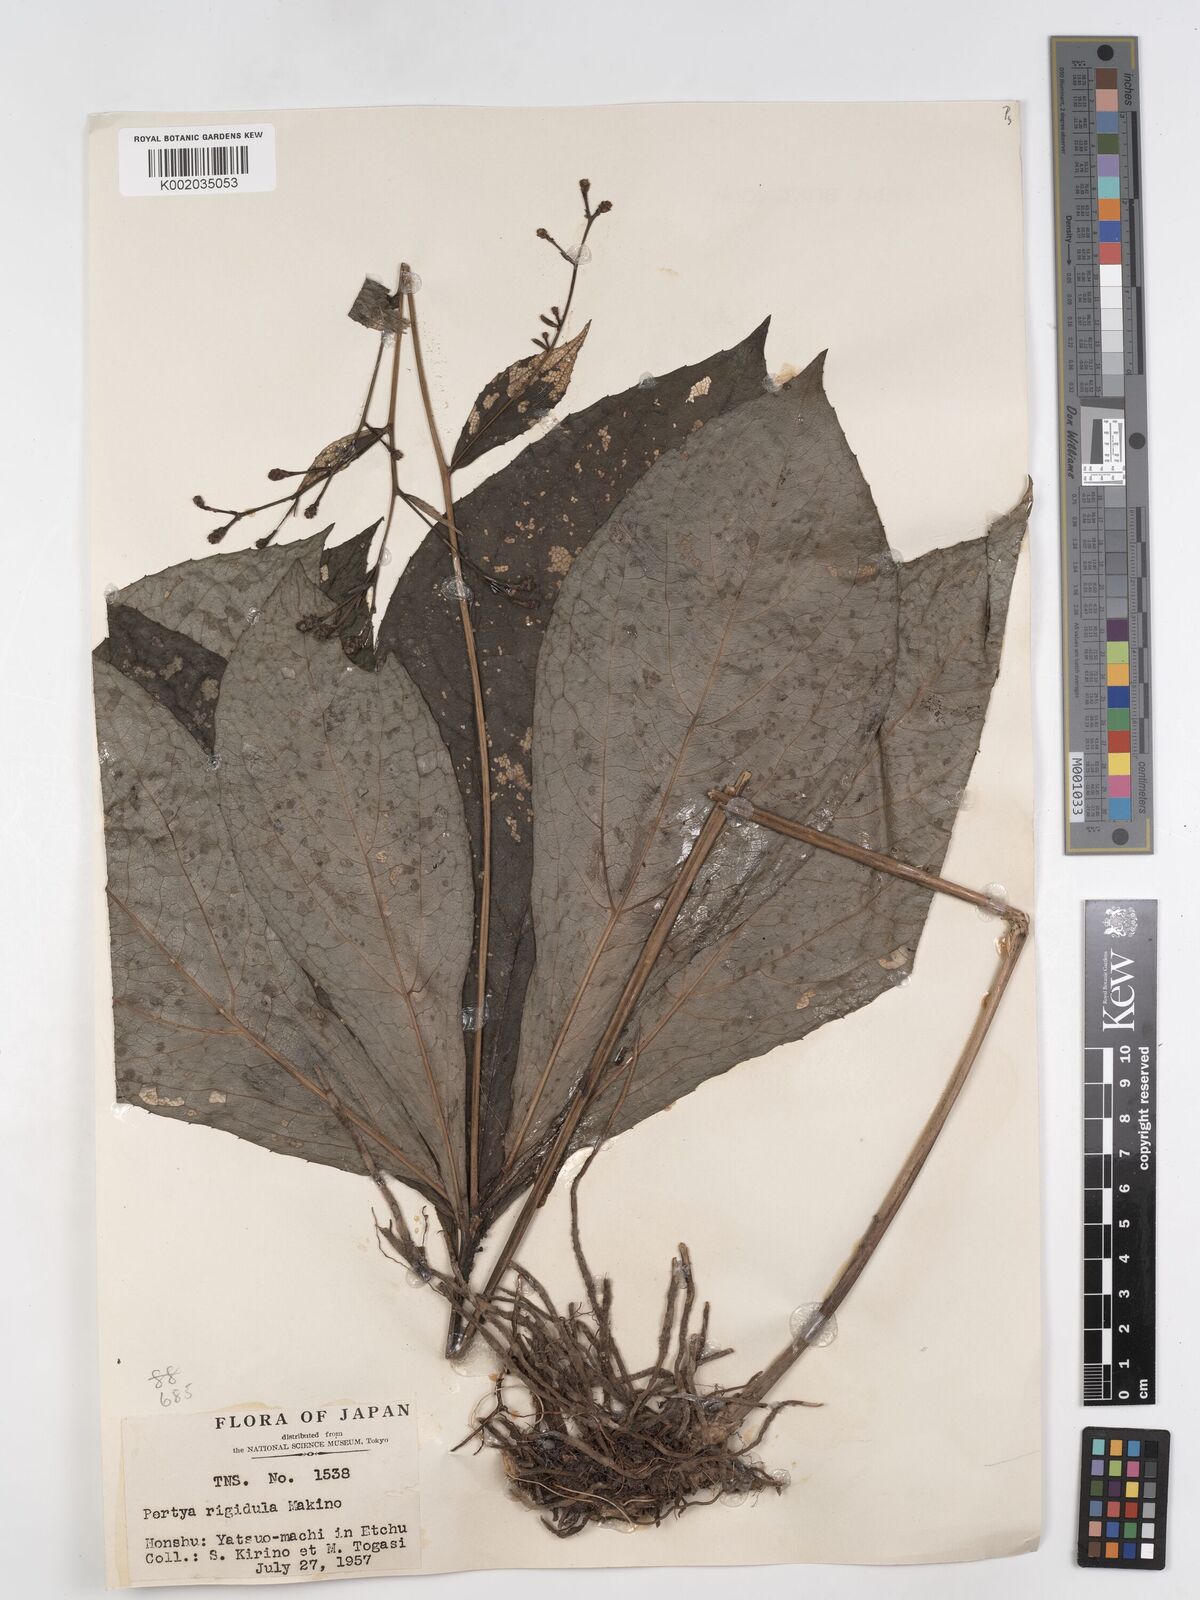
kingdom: Plantae
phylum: Tracheophyta
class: Magnoliopsida
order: Asterales
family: Asteraceae
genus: Pertya
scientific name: Pertya rigidula
